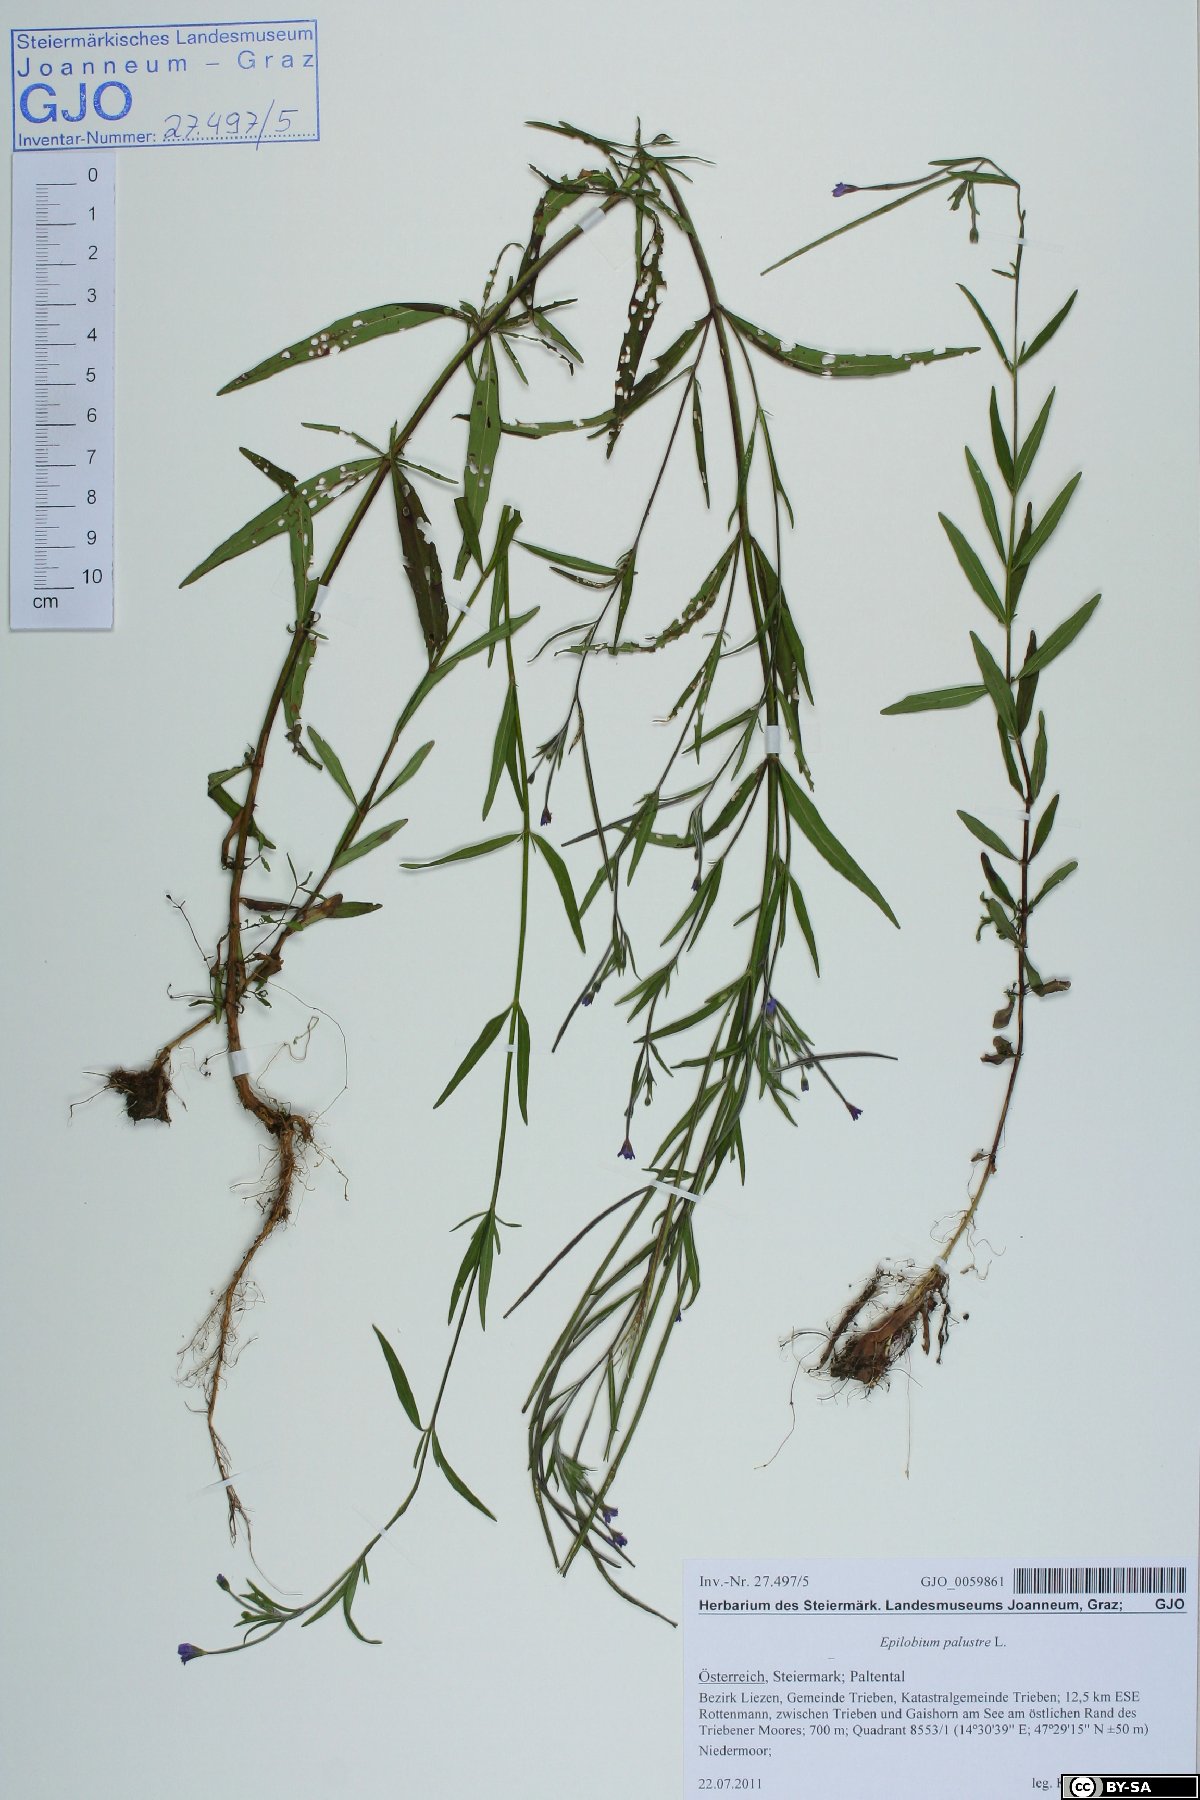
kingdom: Plantae
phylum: Tracheophyta
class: Magnoliopsida
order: Myrtales
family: Onagraceae
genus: Epilobium
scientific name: Epilobium palustre
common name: Marsh willowherb
